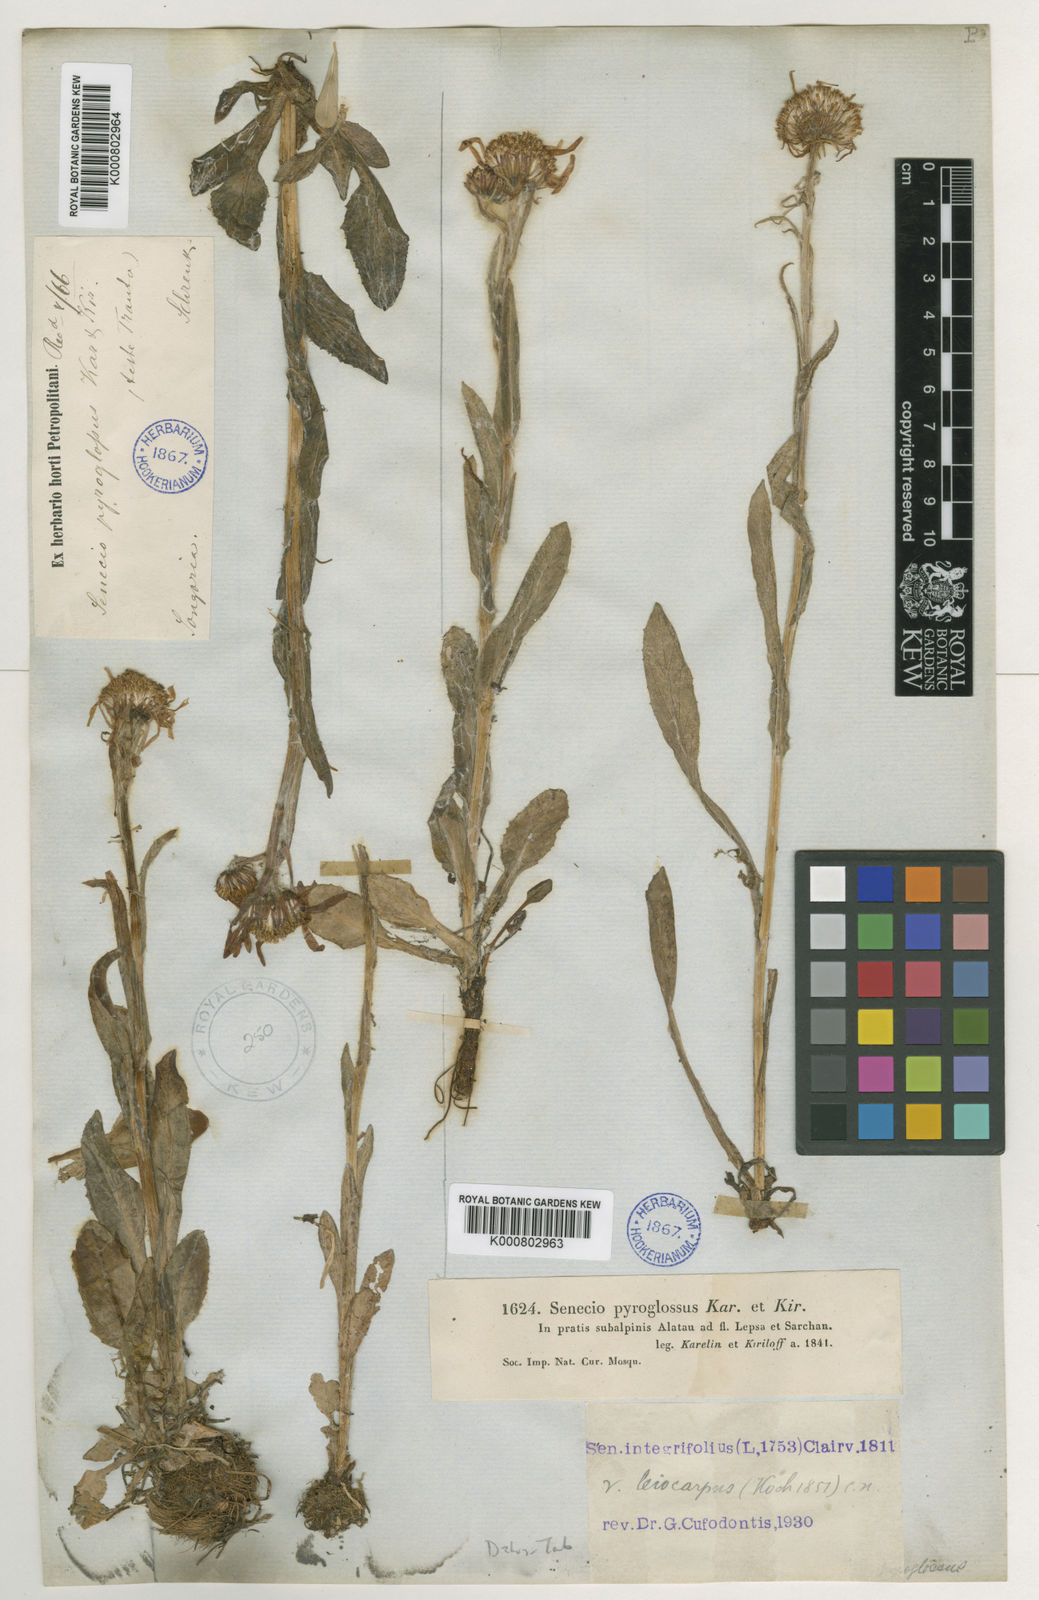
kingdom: Plantae
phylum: Tracheophyta
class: Magnoliopsida
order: Asterales
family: Asteraceae
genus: Tephroseris
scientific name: Tephroseris
